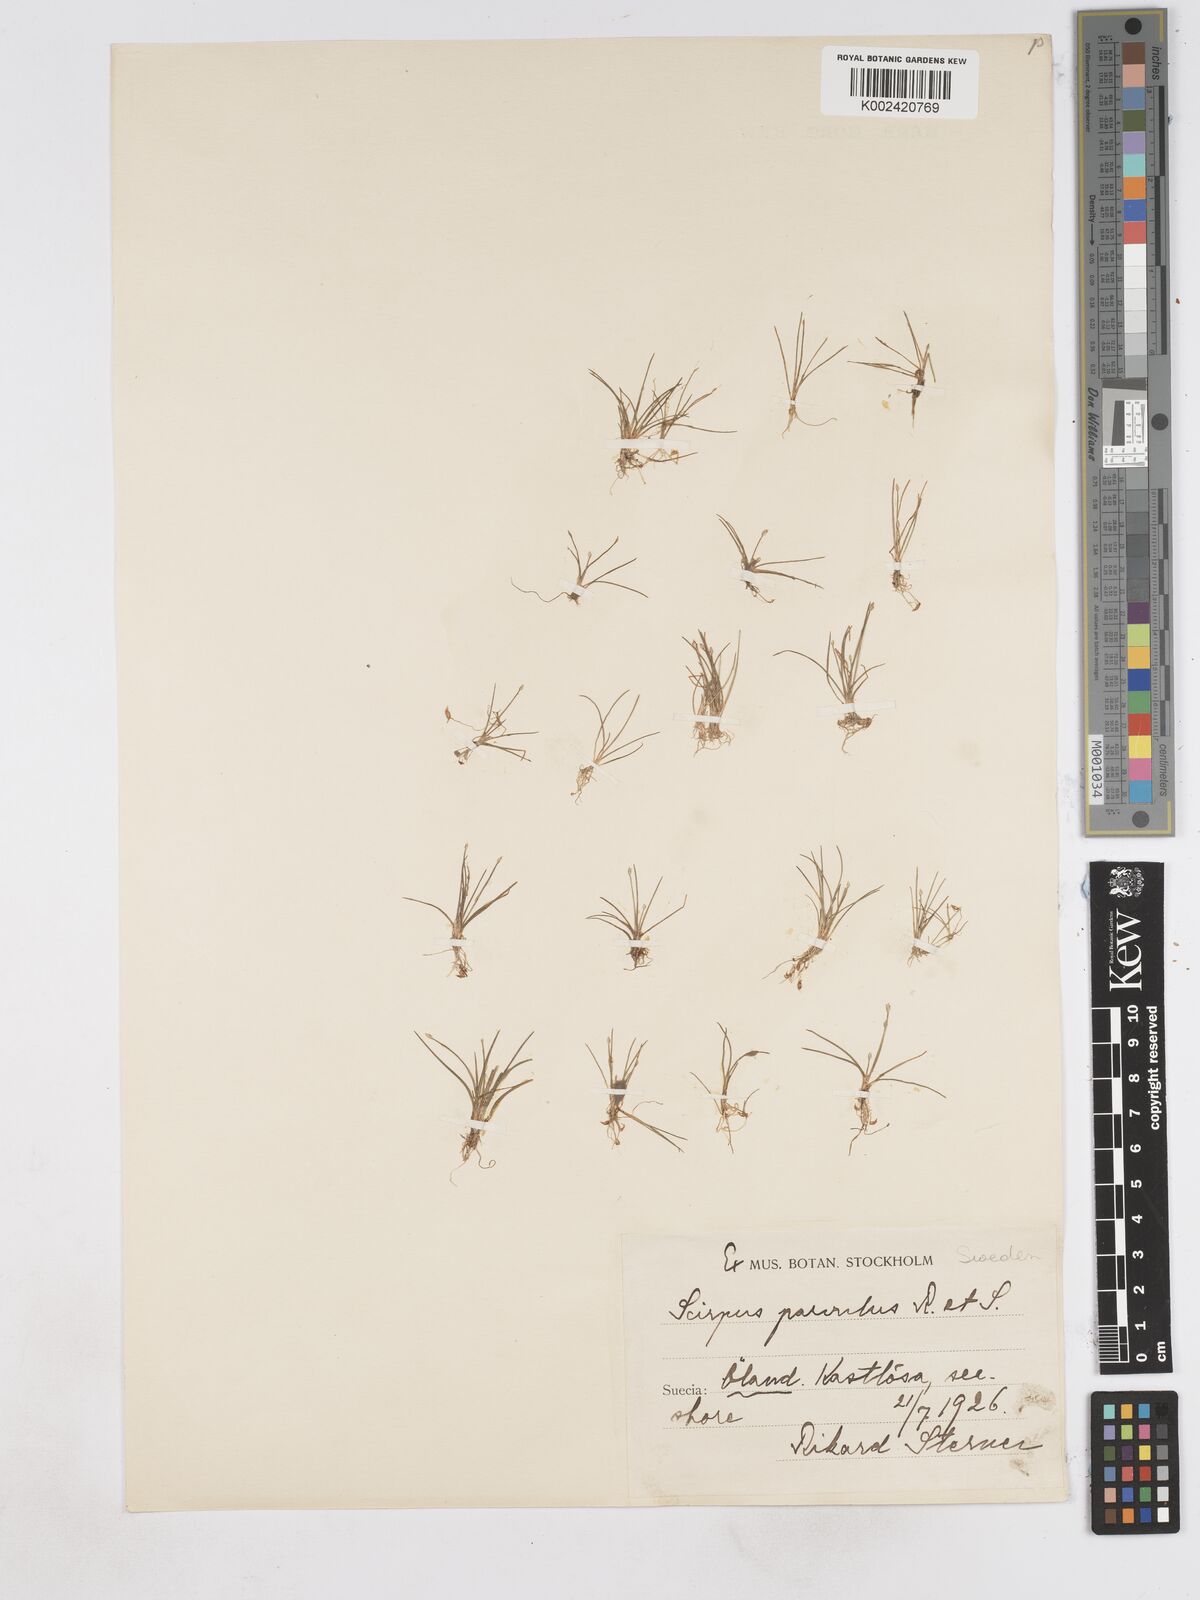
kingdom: Plantae
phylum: Tracheophyta
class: Liliopsida
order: Poales
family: Cyperaceae
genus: Eleocharis
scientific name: Eleocharis parvula
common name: Dwarf spike-rush
